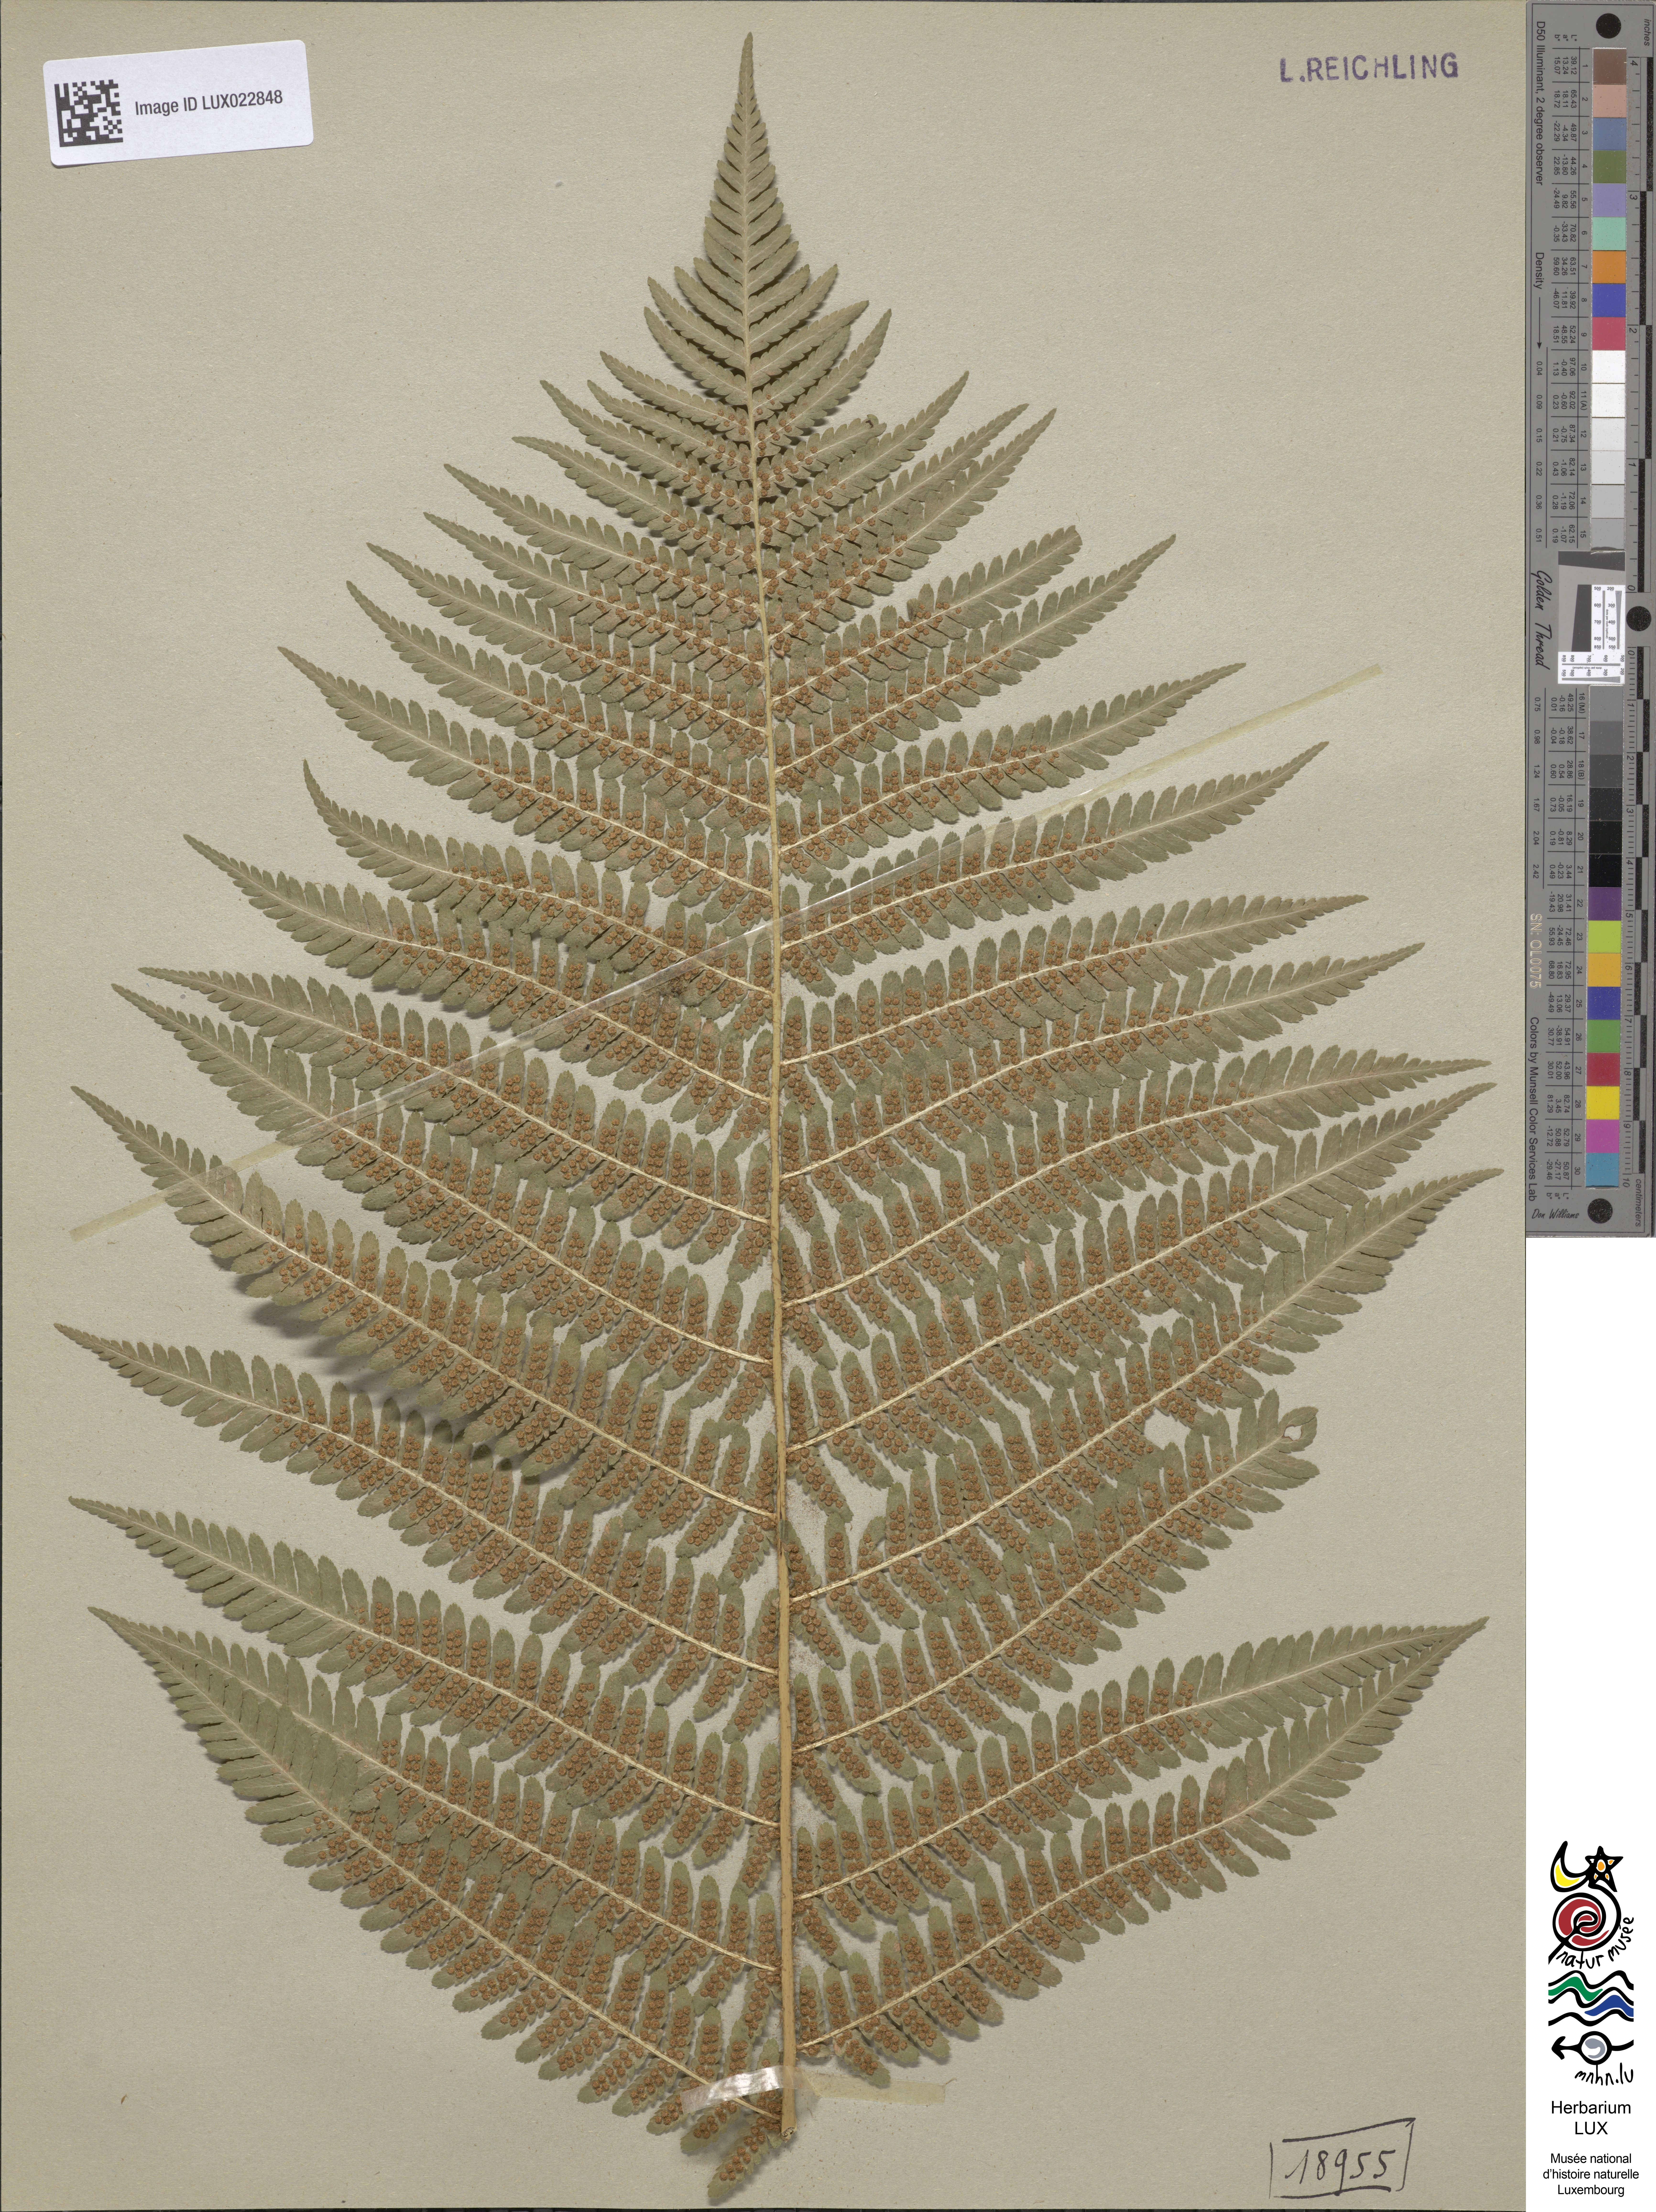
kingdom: Plantae
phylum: Tracheophyta
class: Polypodiopsida
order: Polypodiales
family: Dryopteridaceae
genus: Dryopteris
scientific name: Dryopteris filix-mas
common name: Male fern
